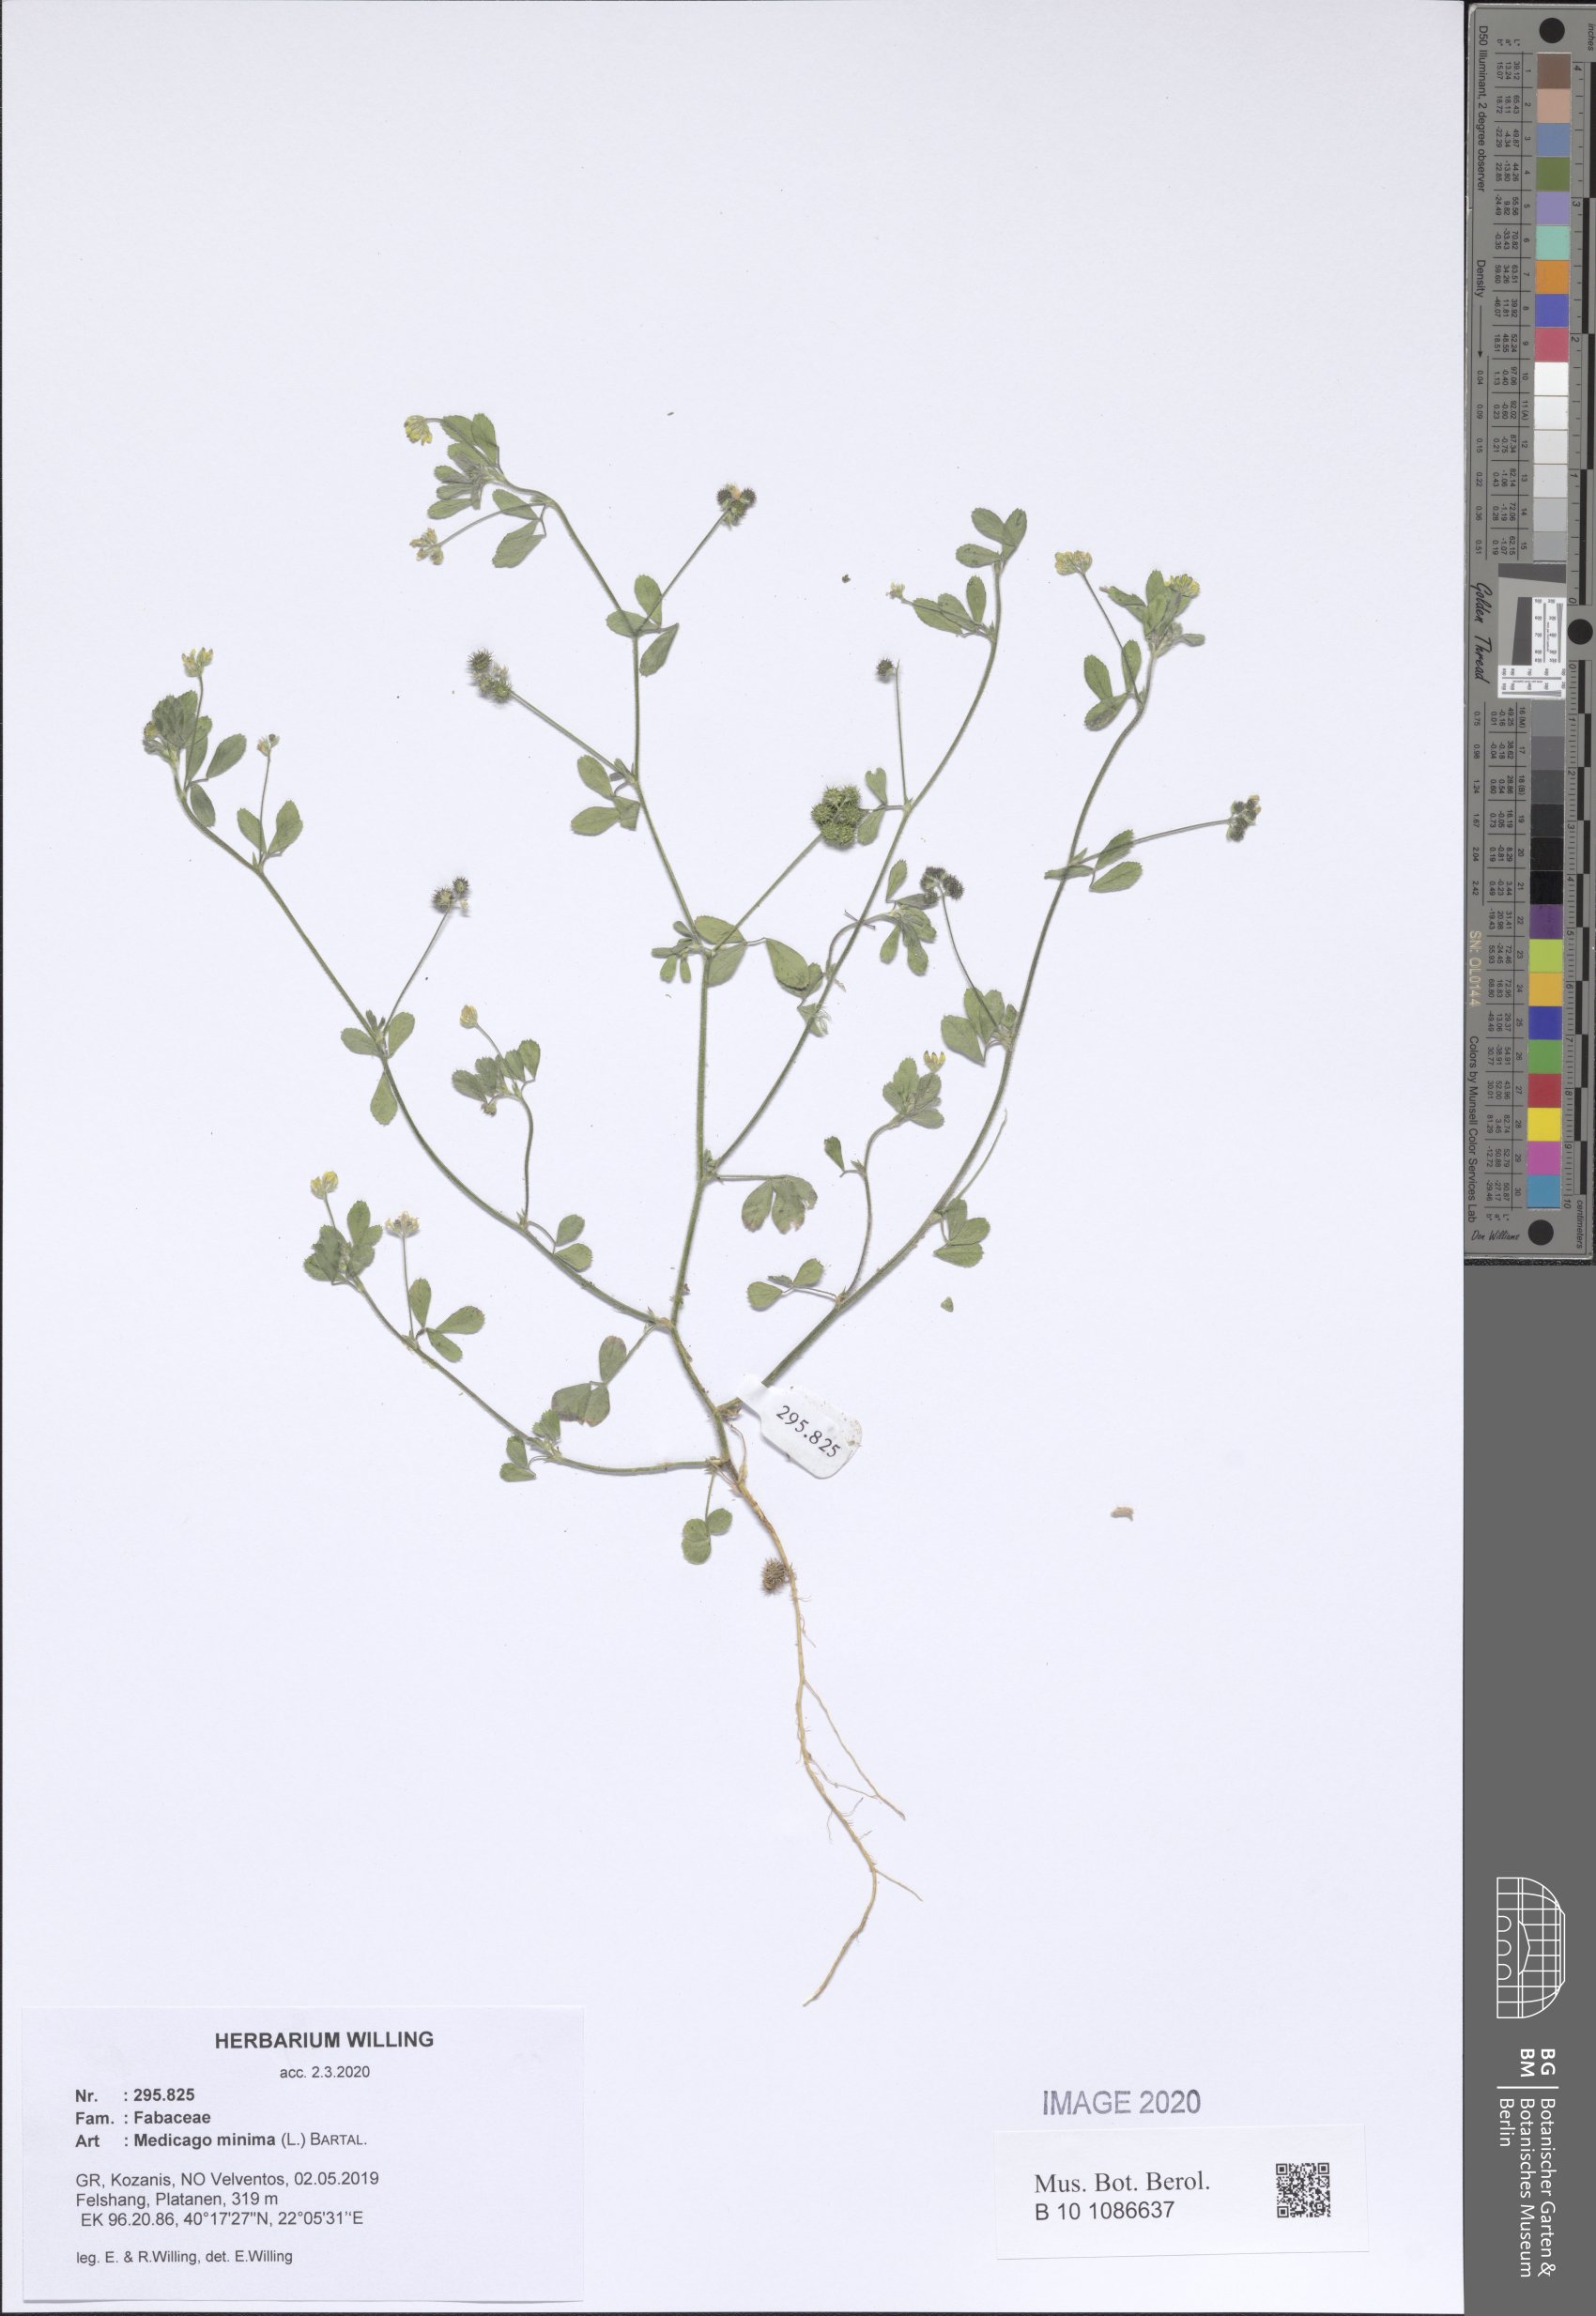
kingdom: Plantae
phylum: Tracheophyta
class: Magnoliopsida
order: Fabales
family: Fabaceae
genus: Medicago
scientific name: Medicago minima
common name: Little bur-clover
